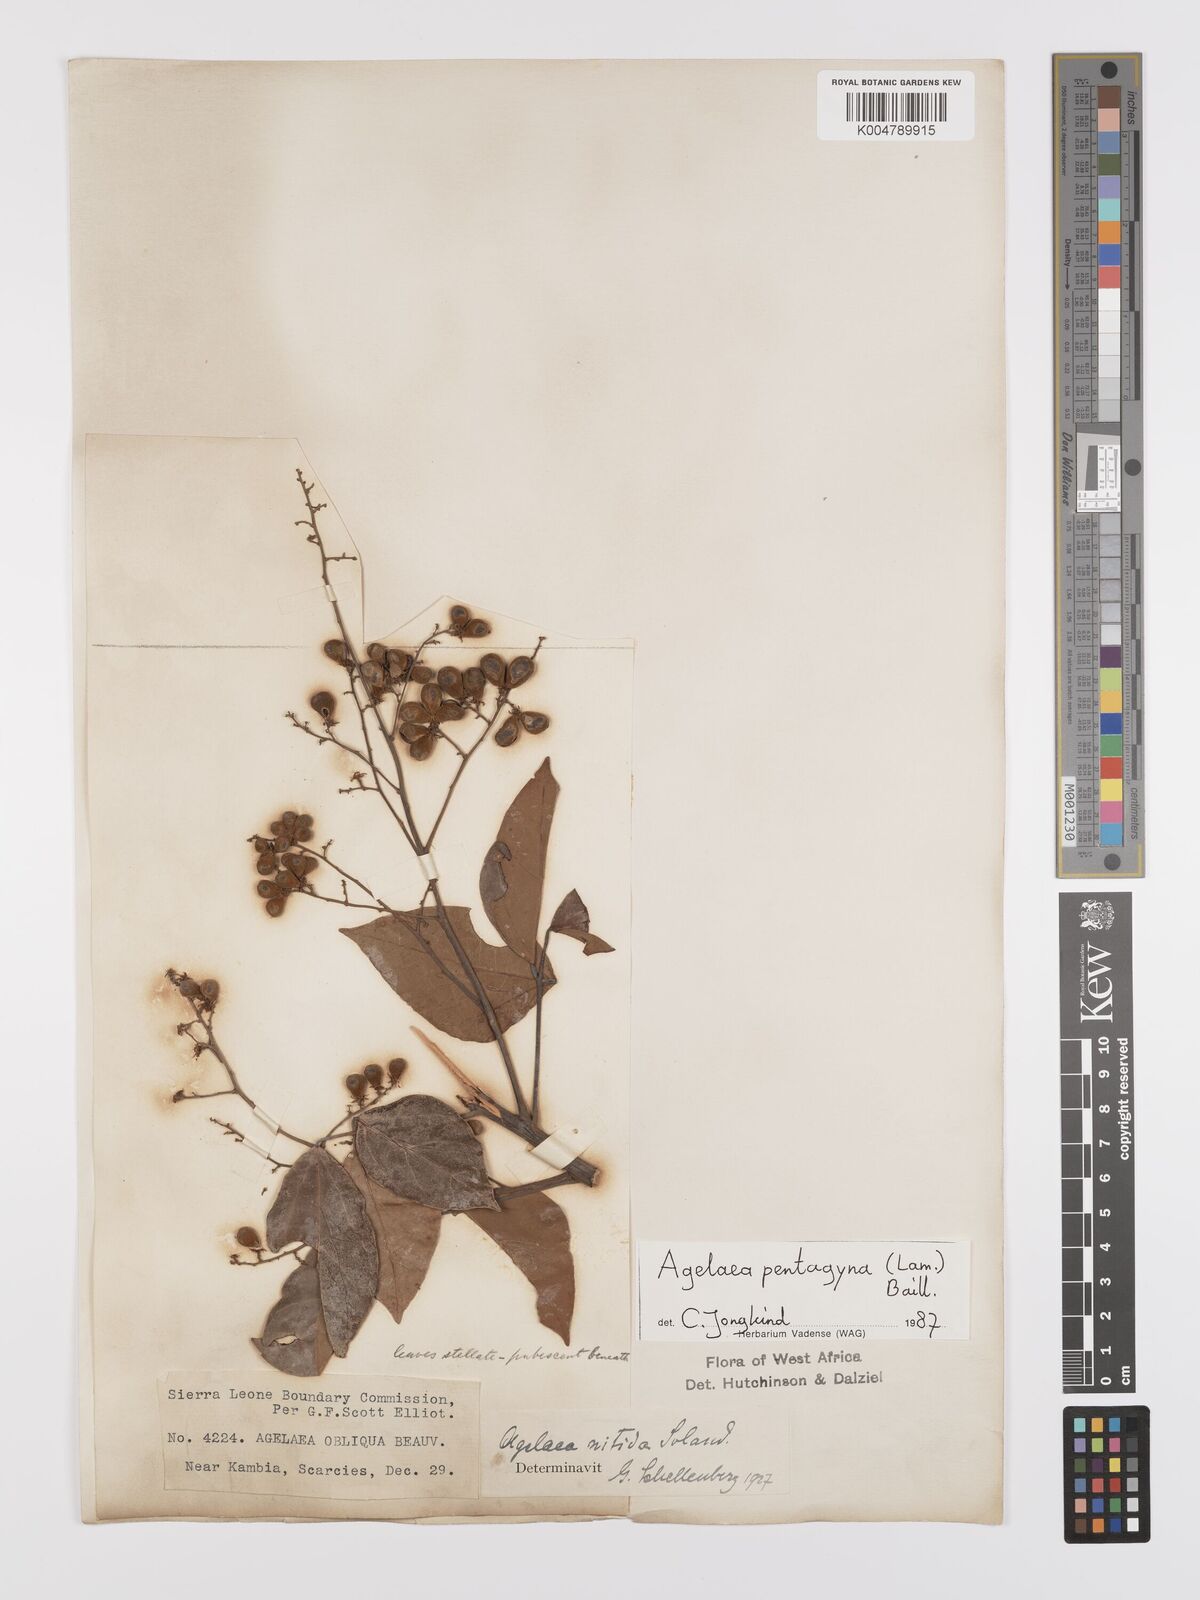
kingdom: Plantae
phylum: Tracheophyta
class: Magnoliopsida
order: Oxalidales
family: Connaraceae
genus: Agelaea
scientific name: Agelaea pentagyna
